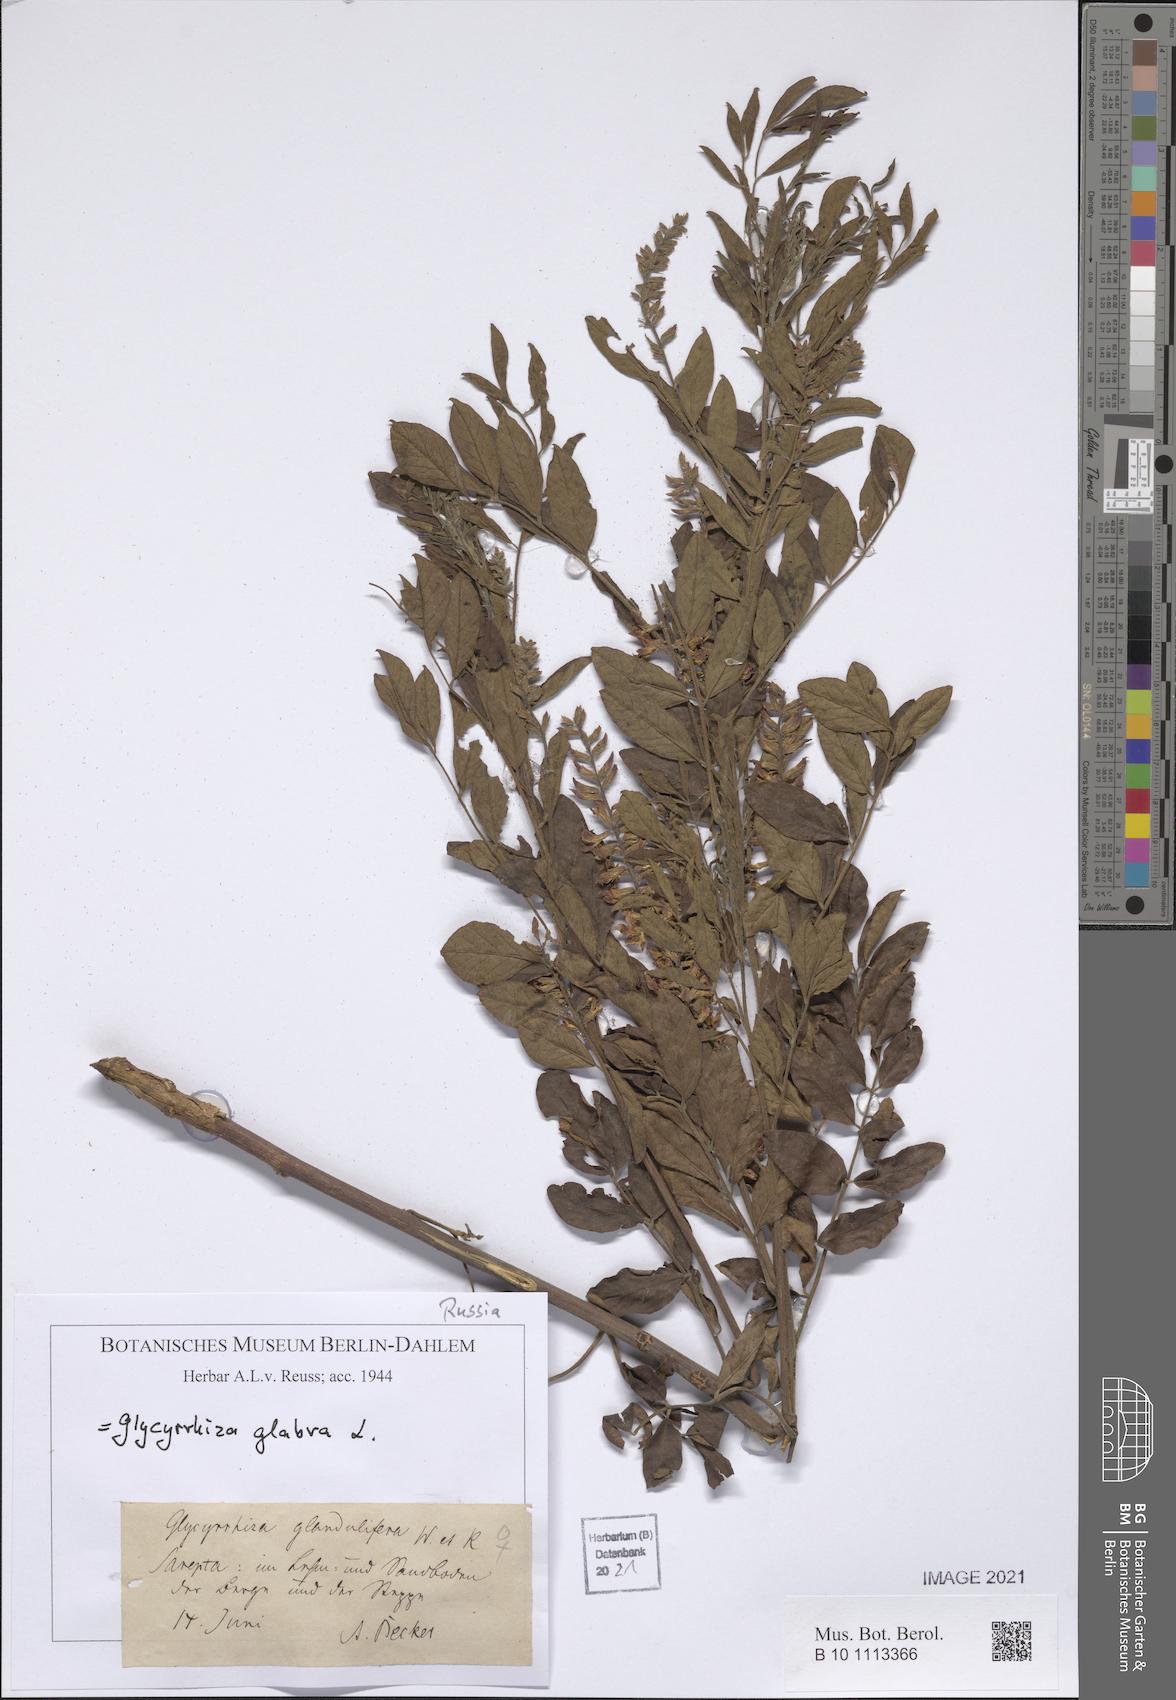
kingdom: Plantae
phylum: Tracheophyta
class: Magnoliopsida
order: Fabales
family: Fabaceae
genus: Glycyrrhiza
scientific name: Glycyrrhiza glabra
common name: Liquorice
